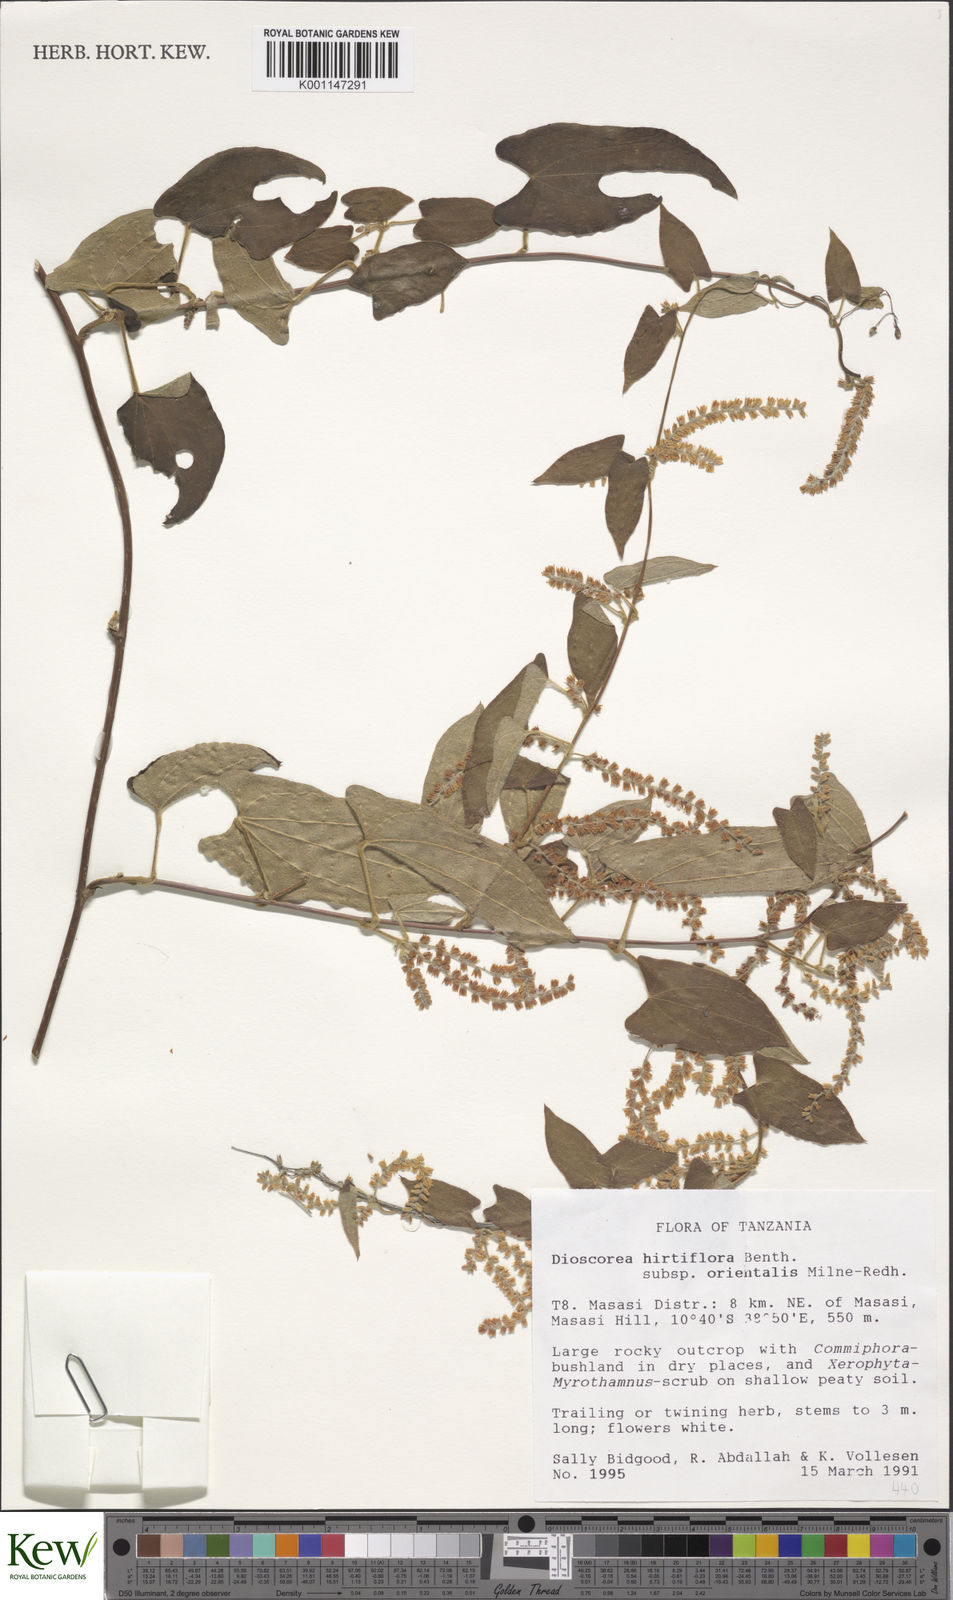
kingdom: Plantae
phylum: Tracheophyta
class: Liliopsida
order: Dioscoreales
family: Dioscoreaceae
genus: Dioscorea
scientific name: Dioscorea hirtiflora
